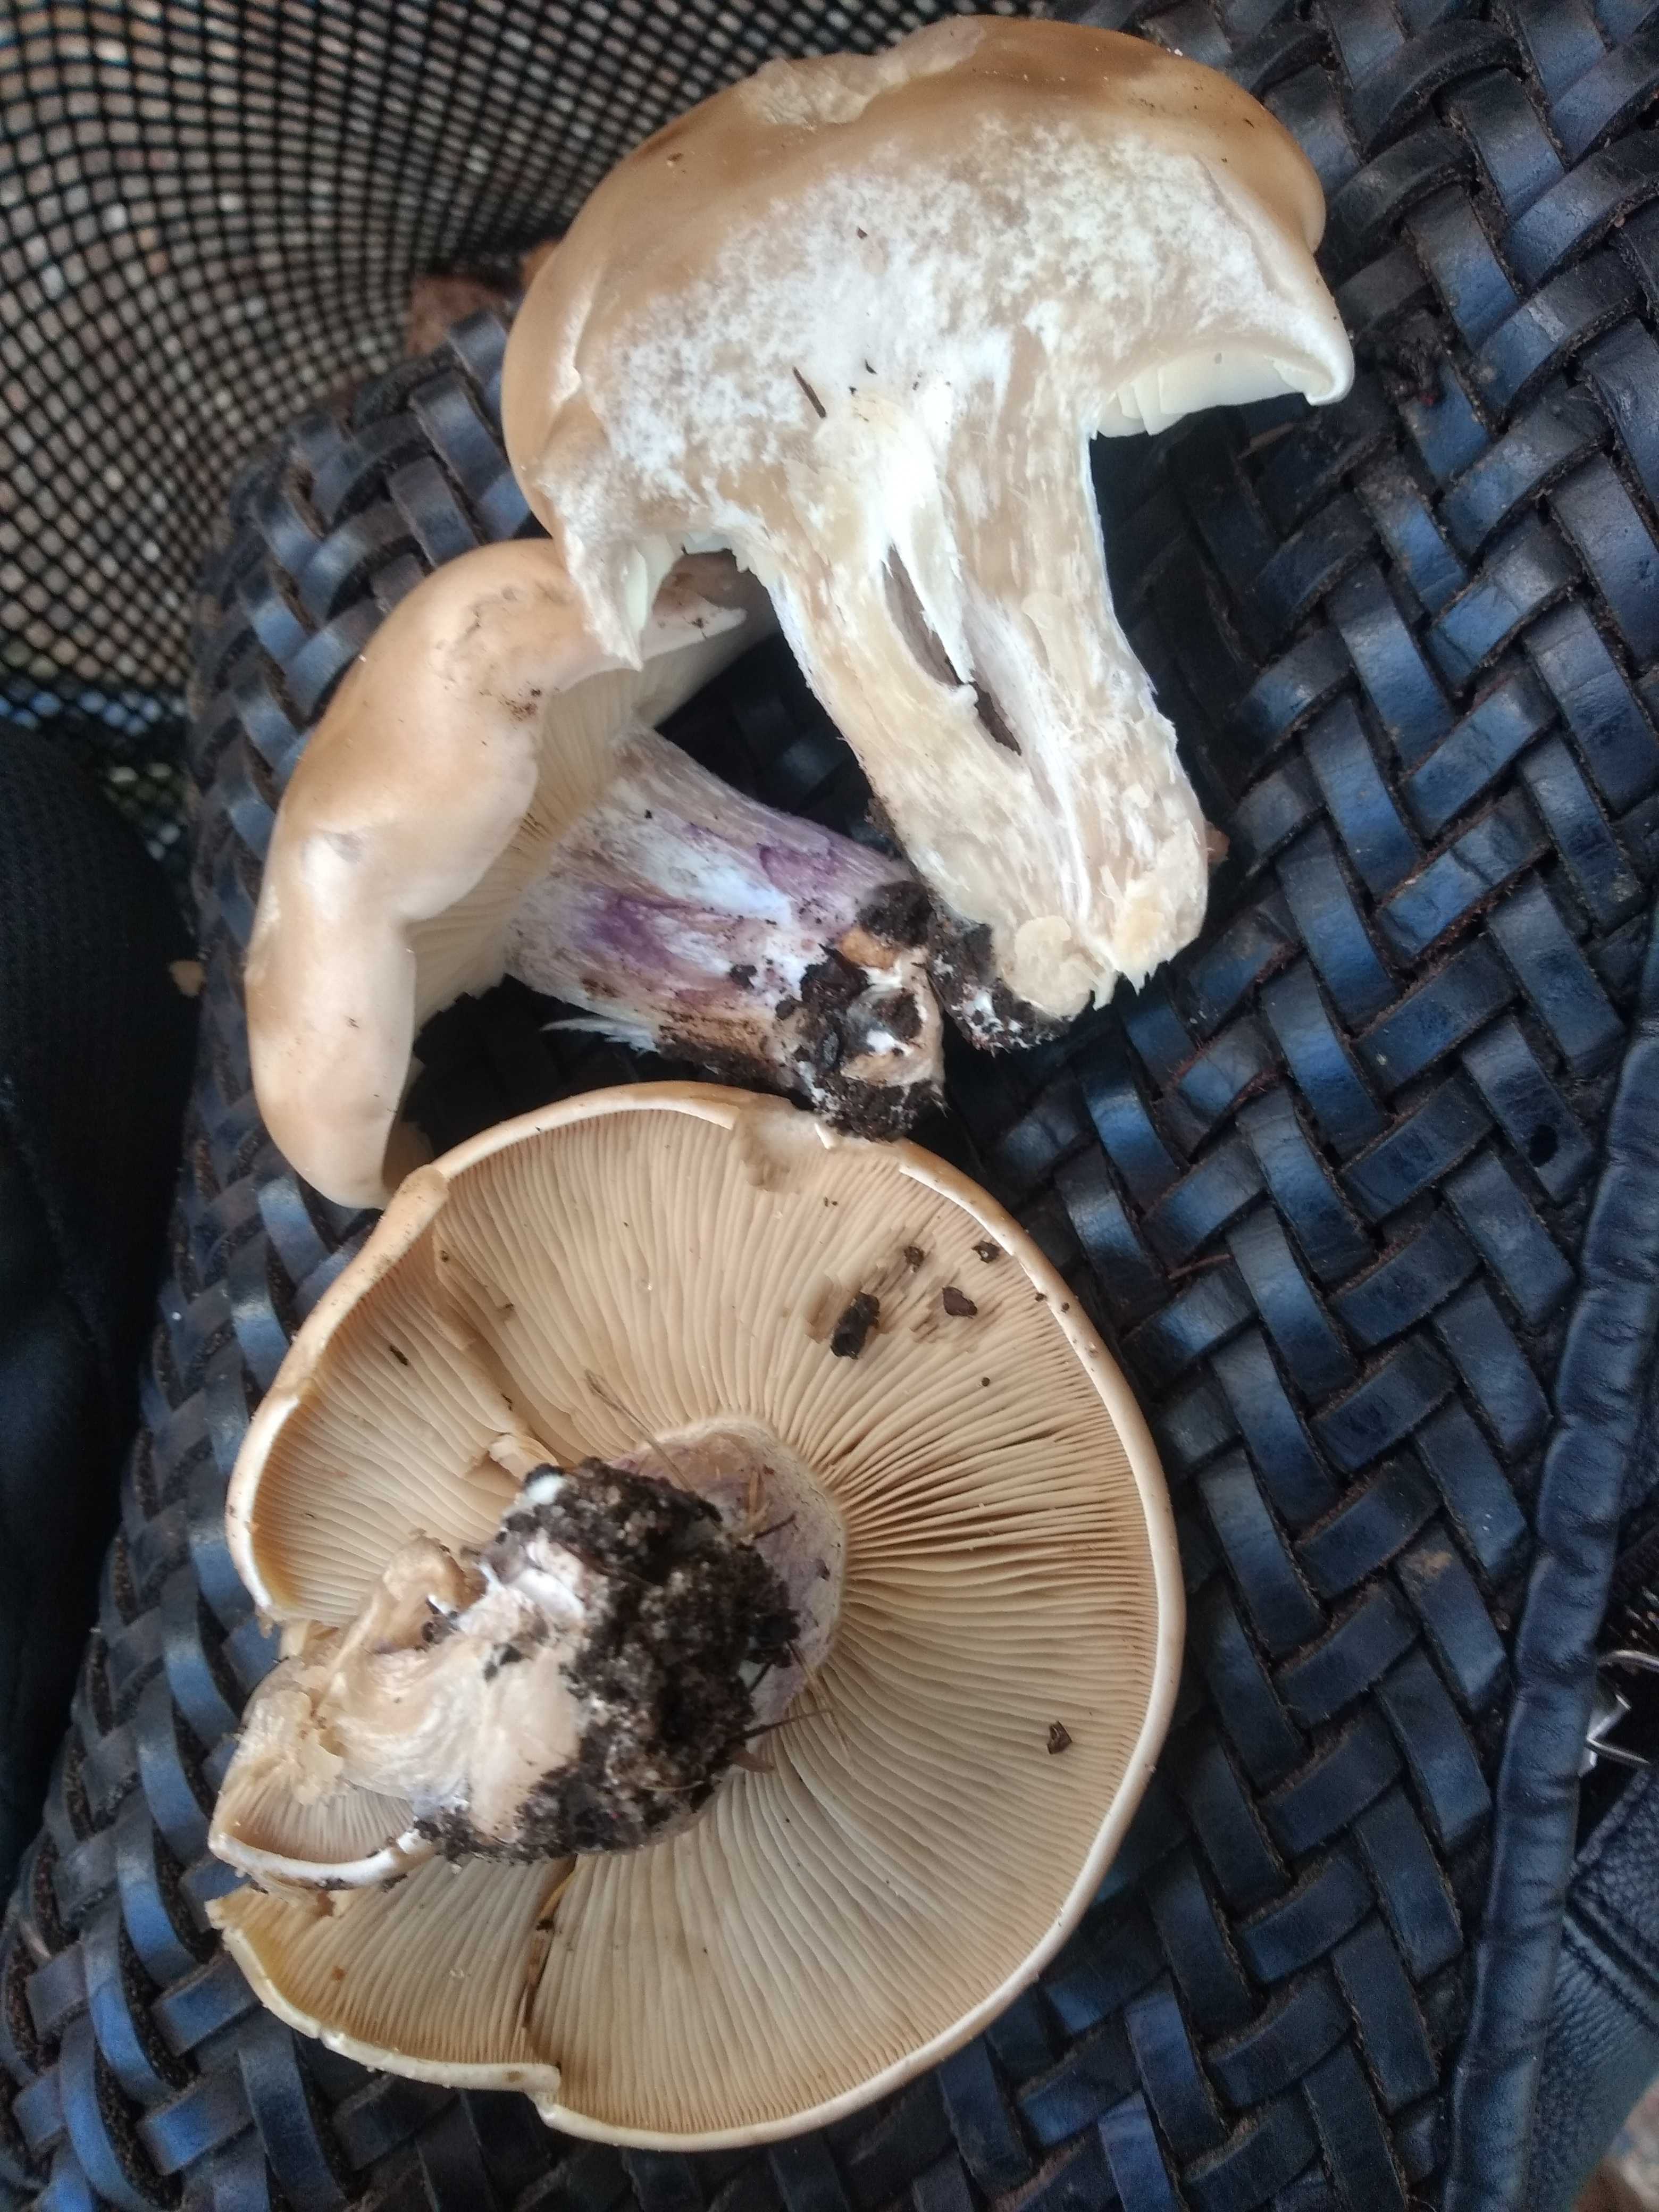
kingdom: Fungi
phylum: Basidiomycota
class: Agaricomycetes
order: Agaricales
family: Tricholomataceae
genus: Lepista
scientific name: Lepista personata
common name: bleg hekseringshat
